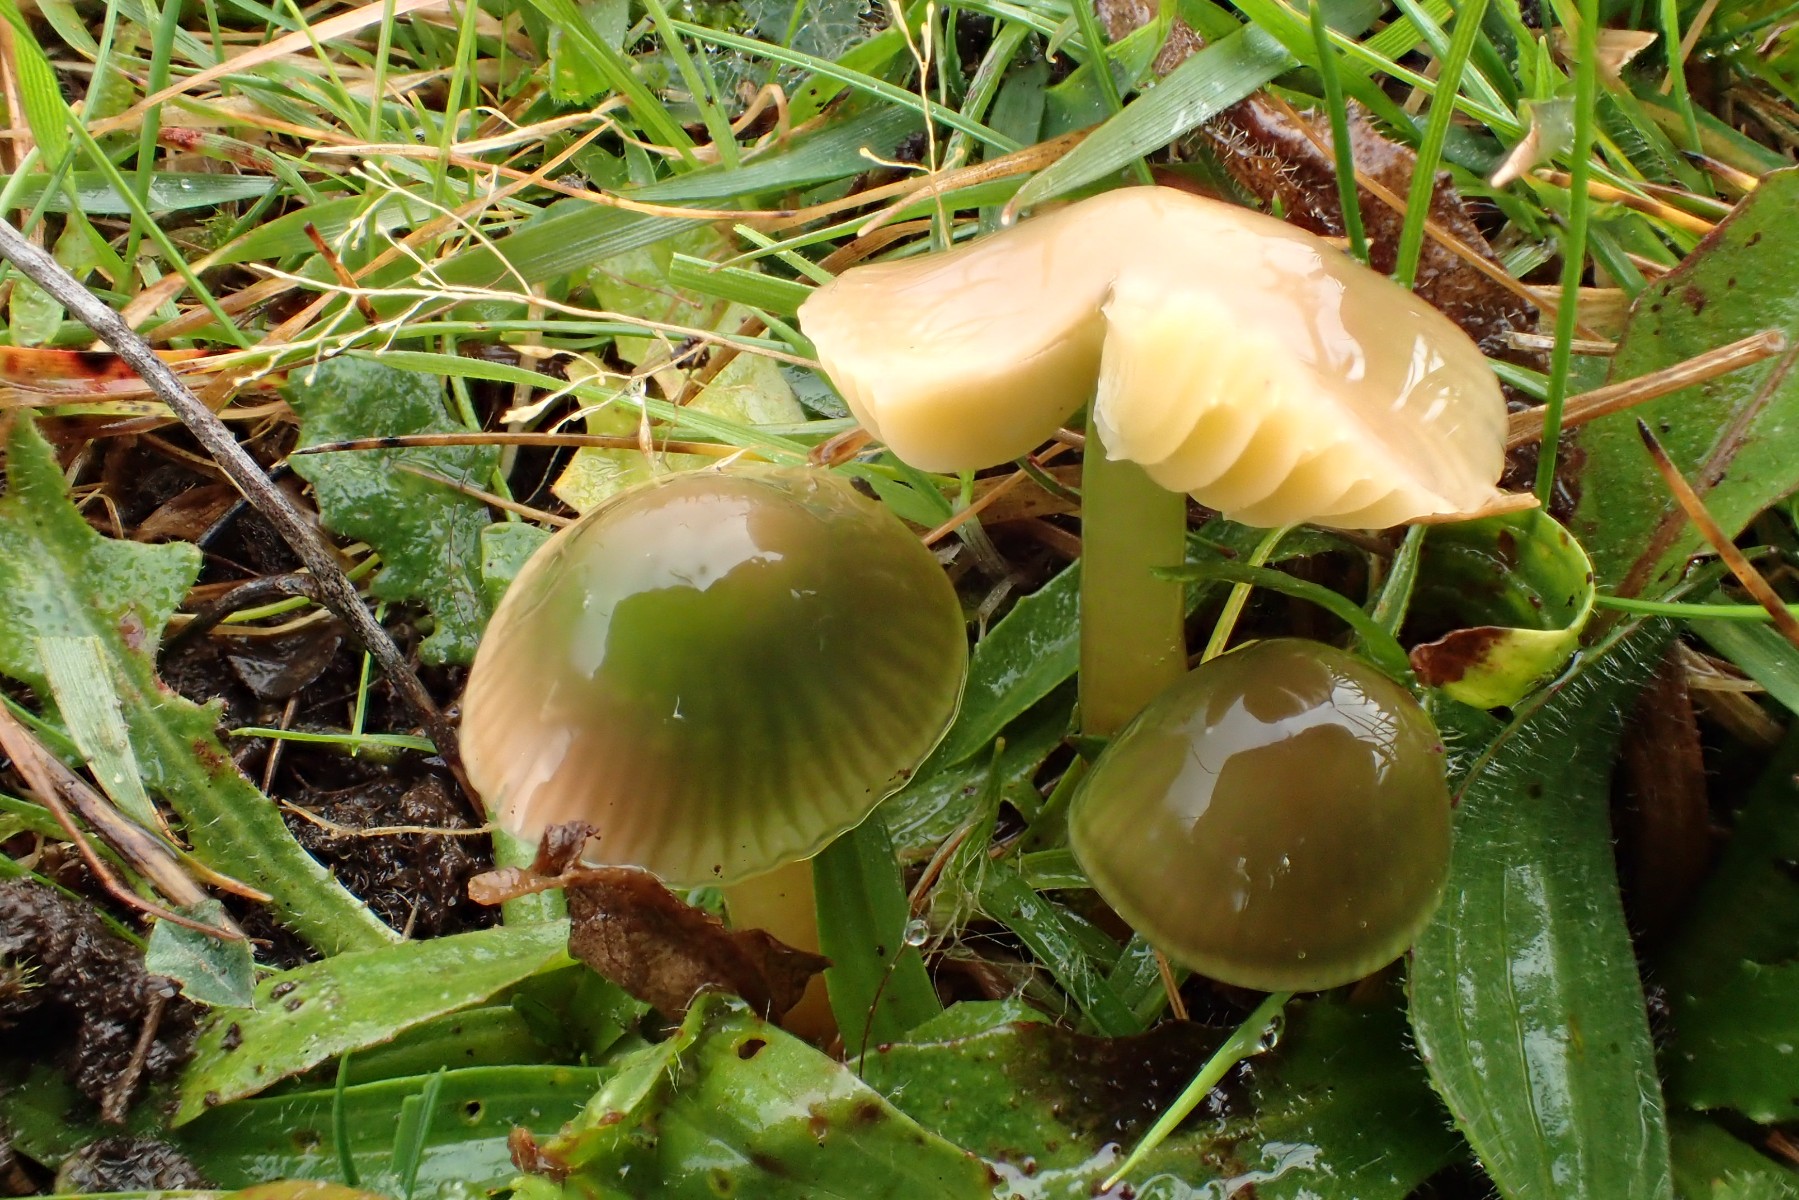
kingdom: Fungi
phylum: Basidiomycota
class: Agaricomycetes
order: Agaricales
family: Hygrophoraceae
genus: Gliophorus
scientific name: Gliophorus psittacinus
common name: papegøje-vokshat
